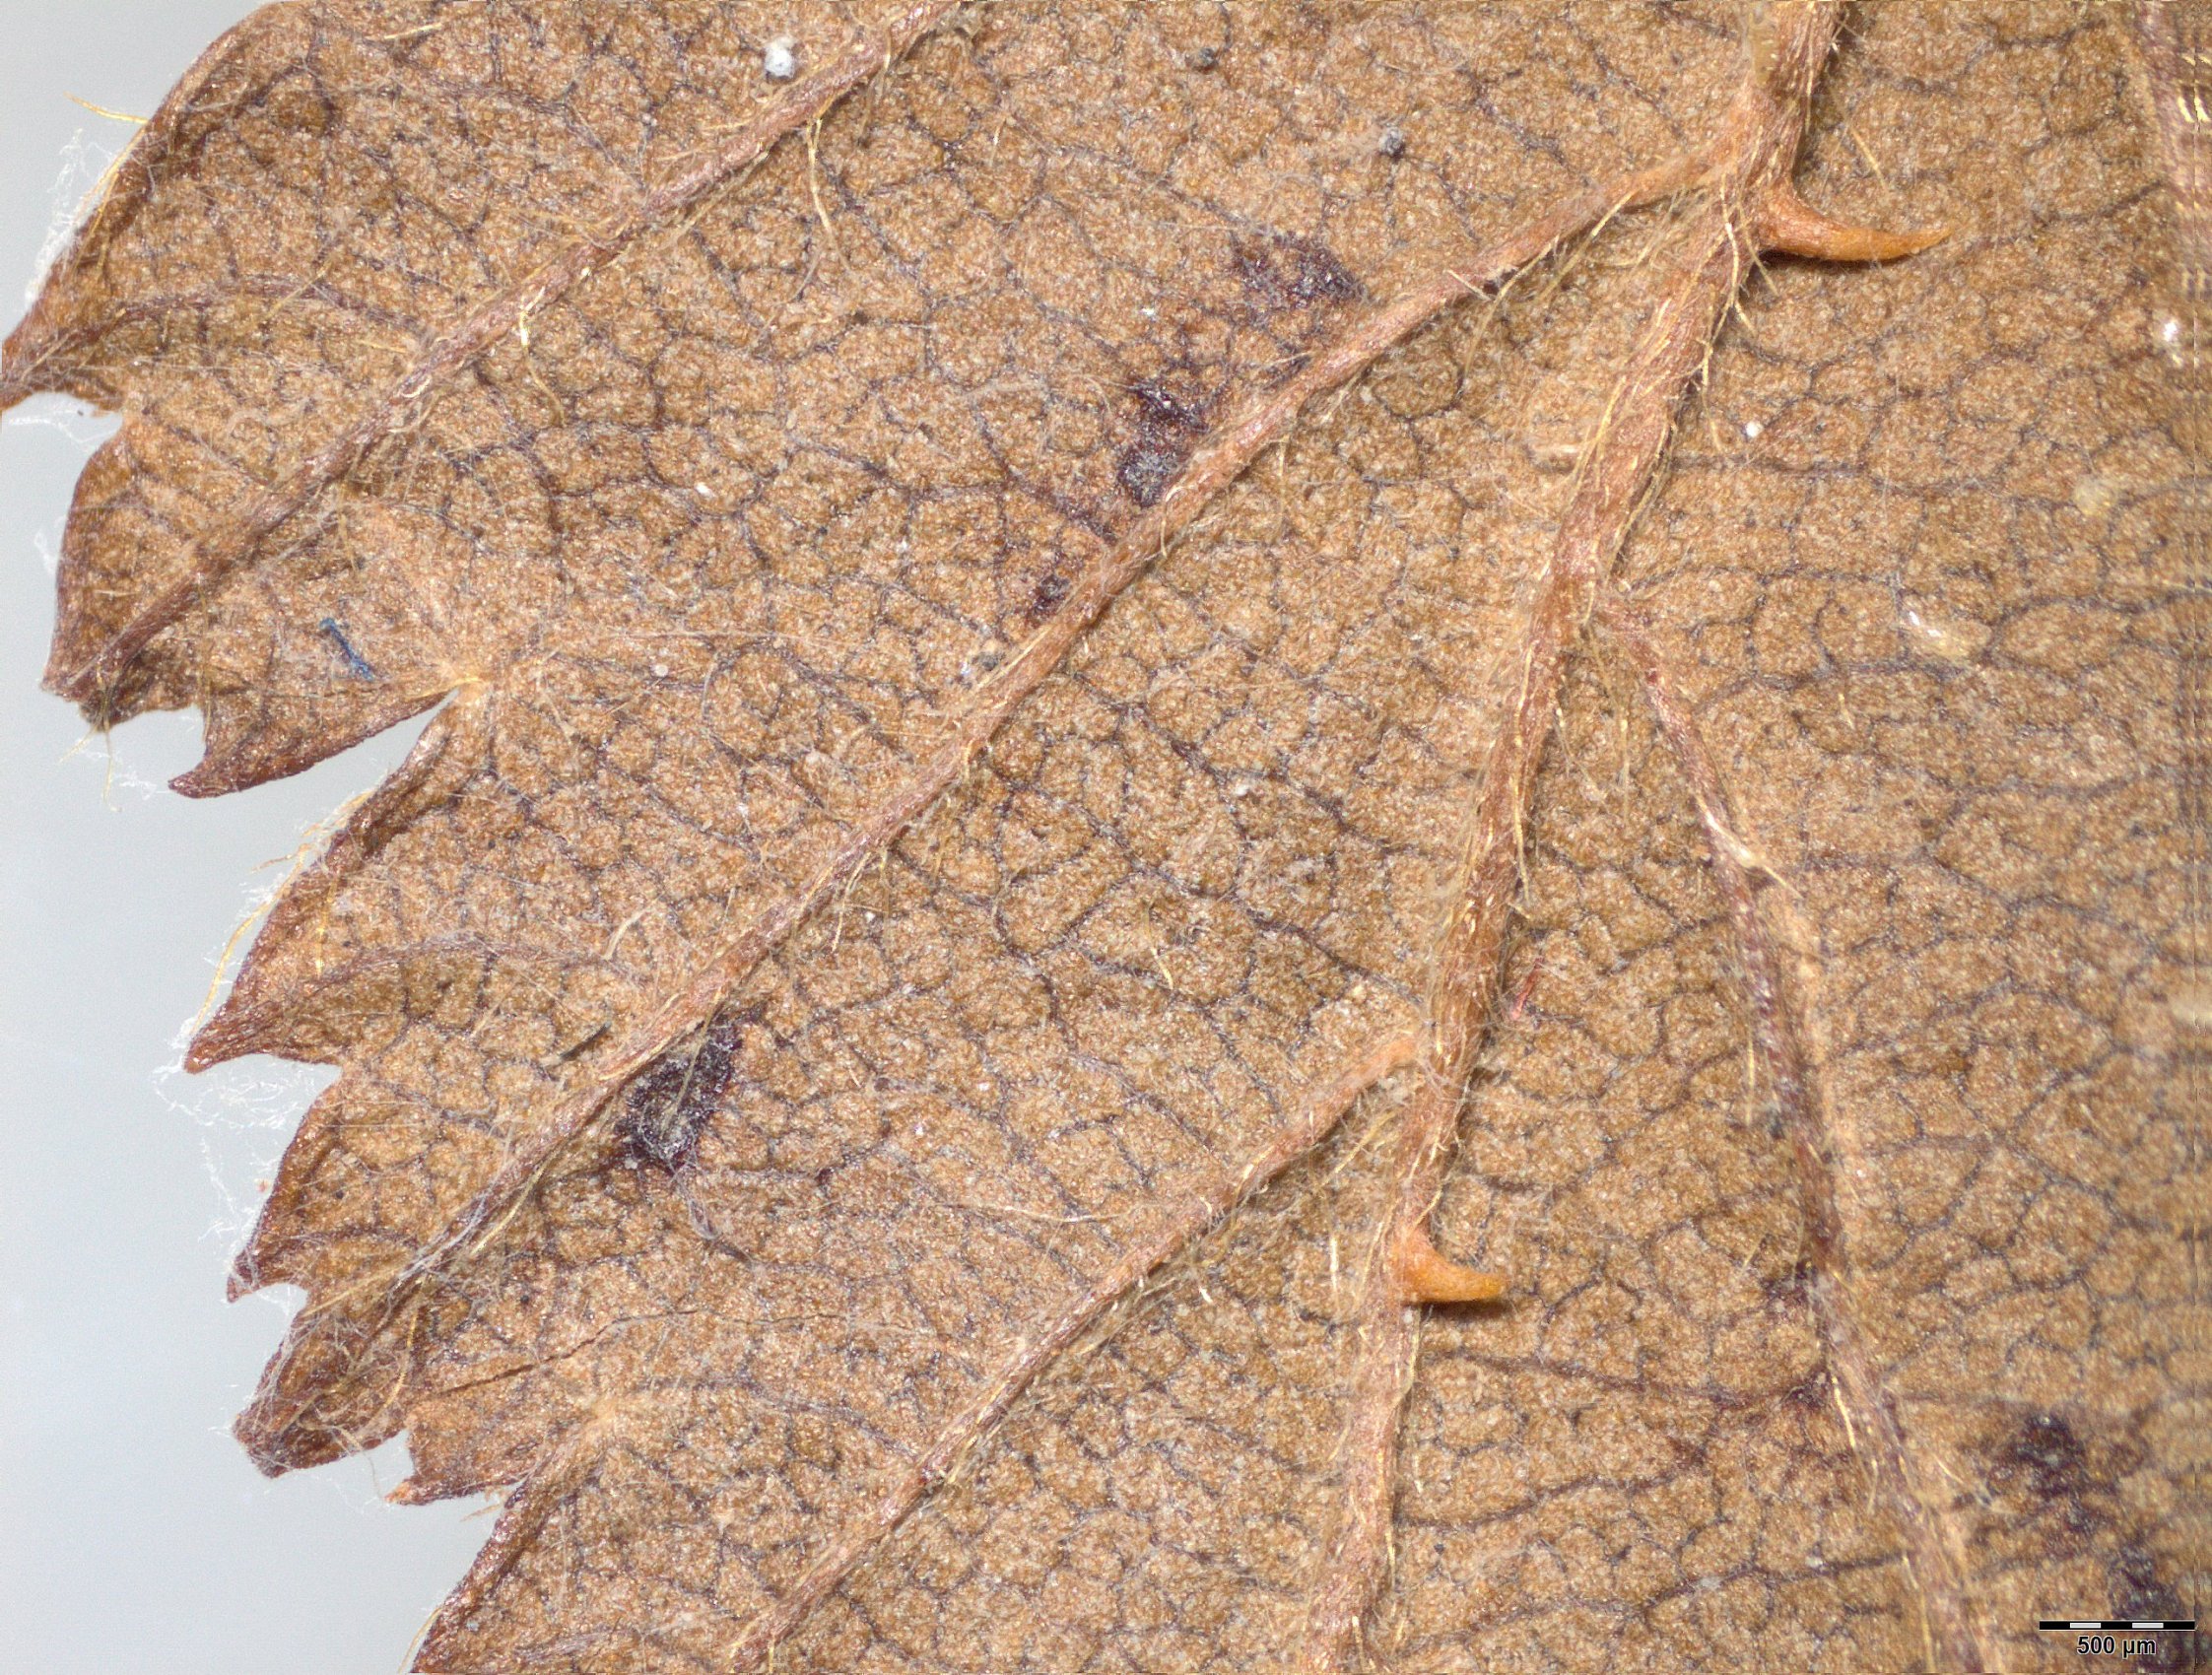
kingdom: Plantae
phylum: Tracheophyta
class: Magnoliopsida
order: Rosales
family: Rosaceae
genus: Rubus
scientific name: Rubus pinnatus
